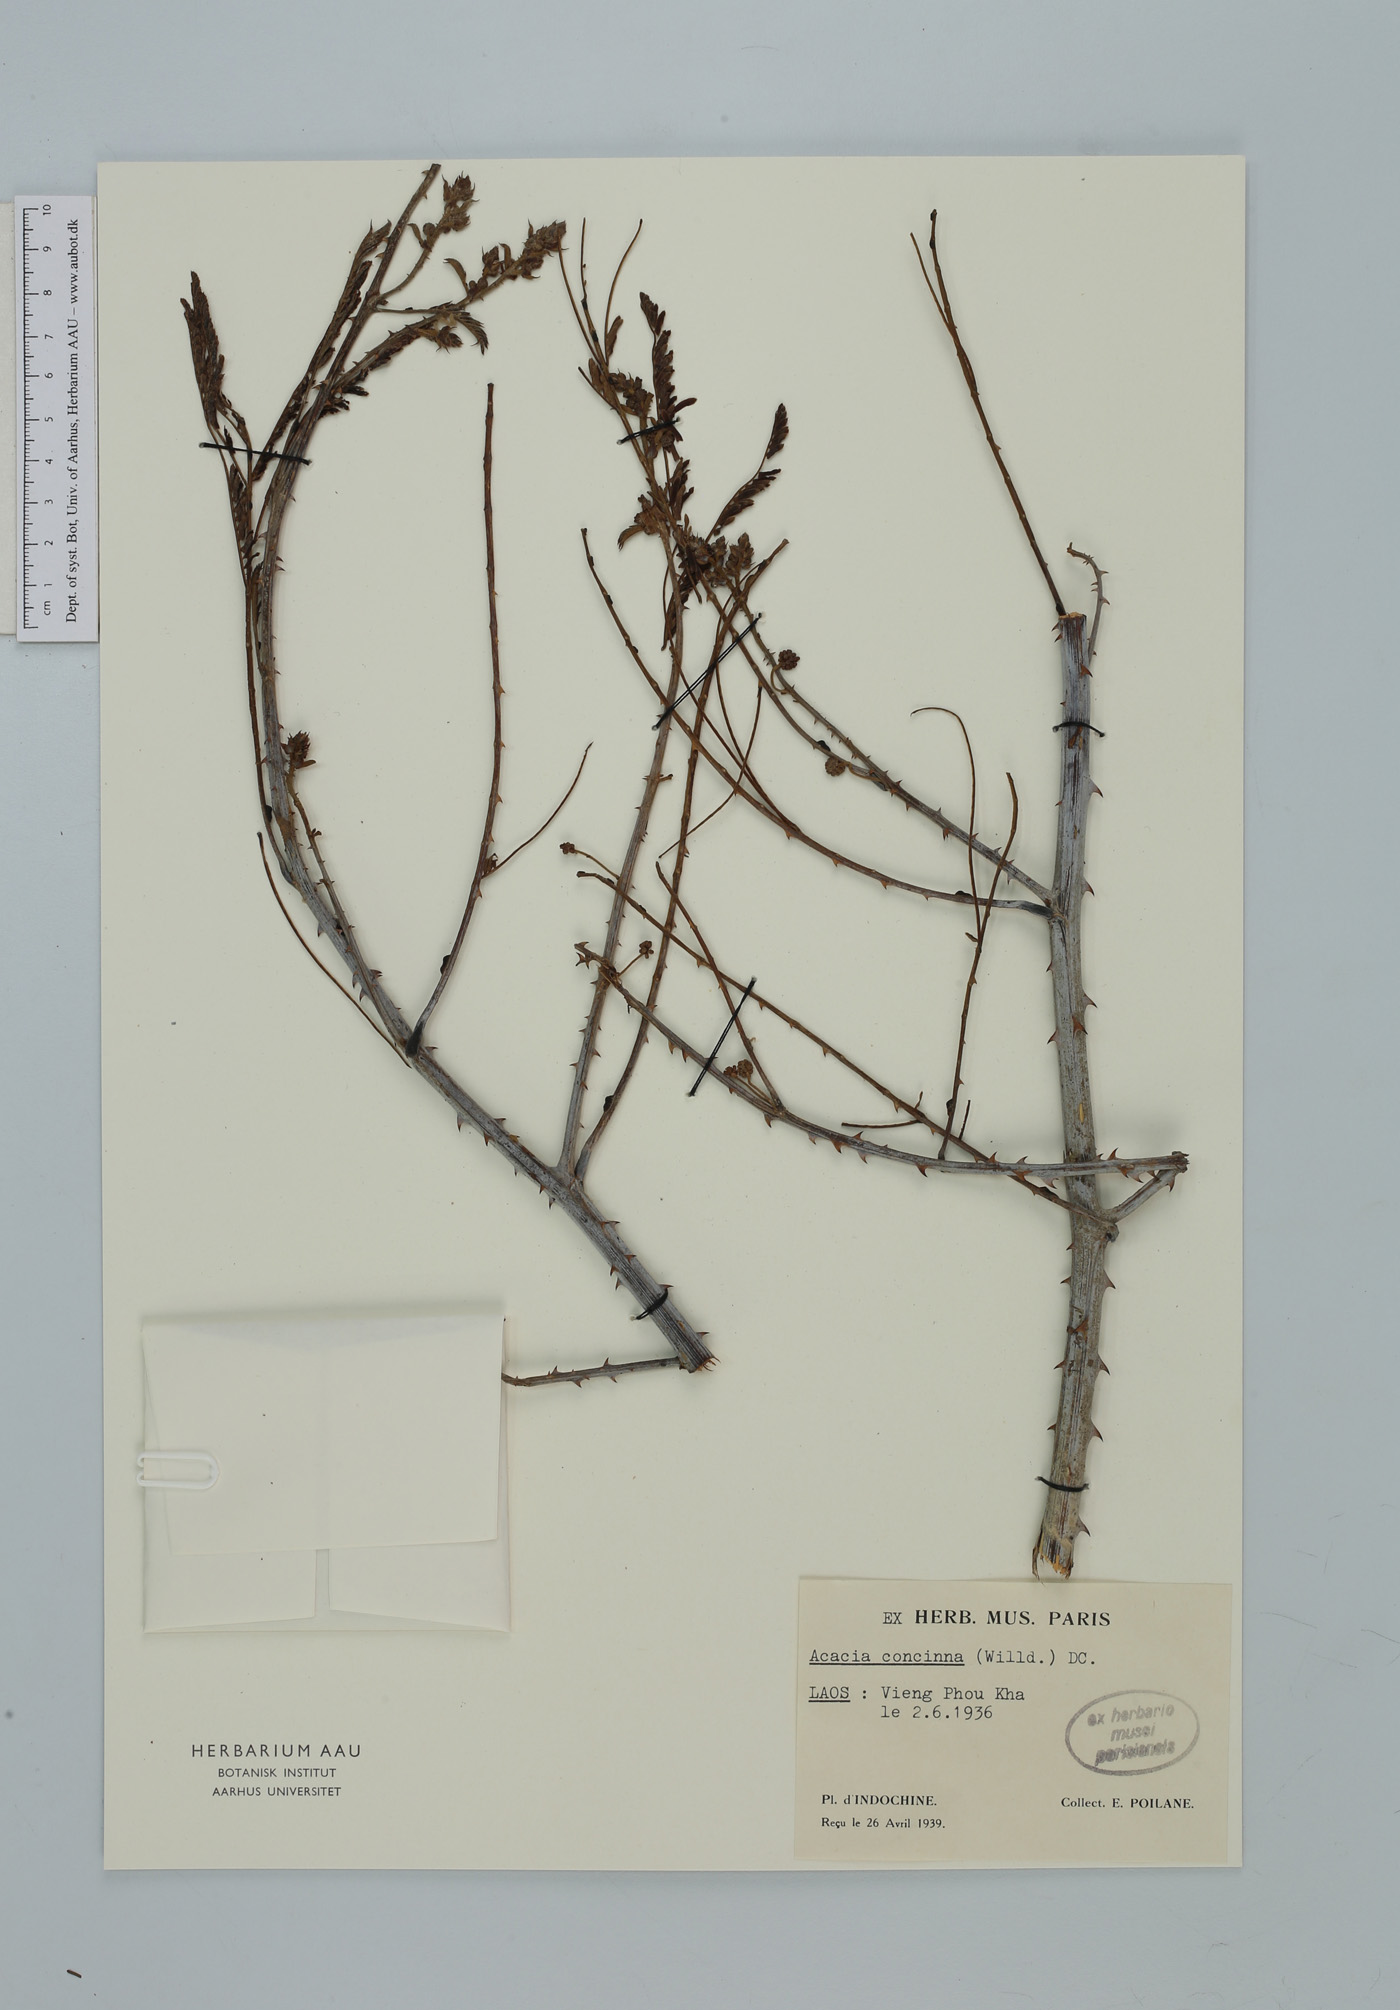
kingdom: Plantae
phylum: Tracheophyta
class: Magnoliopsida
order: Fabales
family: Fabaceae
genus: Senegalia
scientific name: Senegalia rugata
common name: Soap-pod
